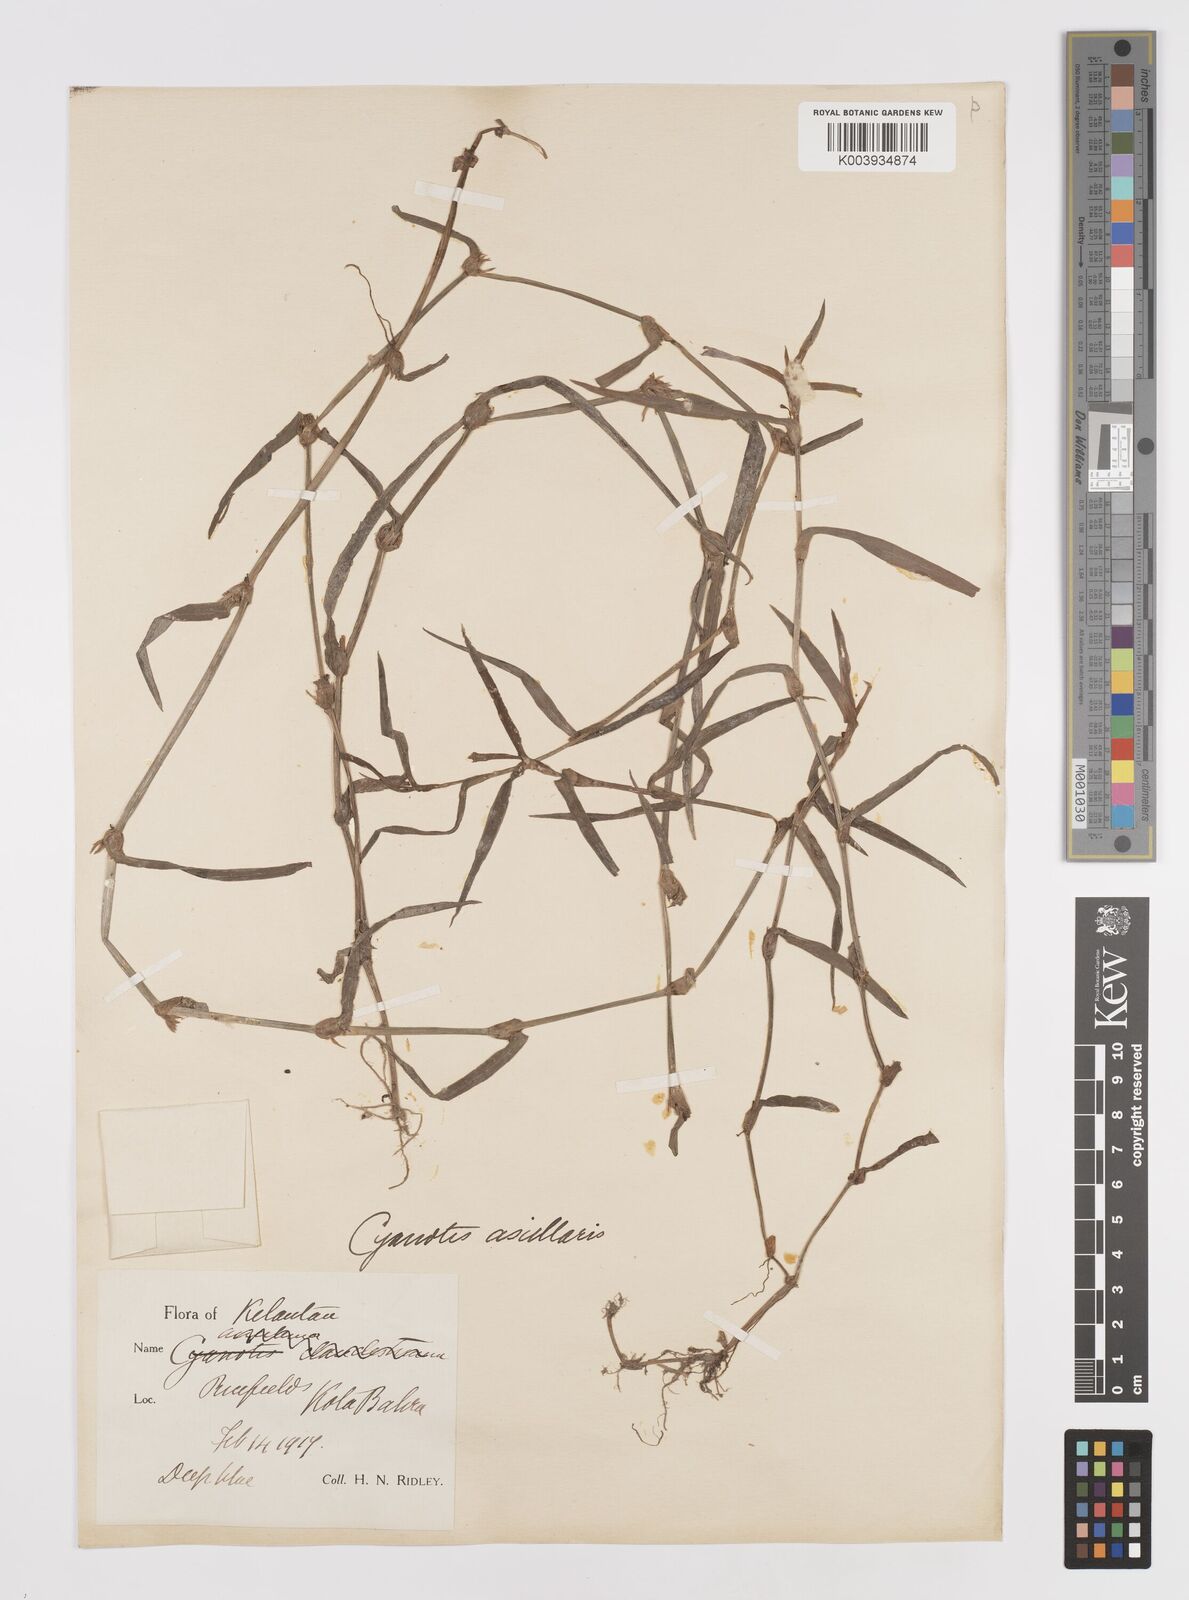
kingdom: Plantae
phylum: Tracheophyta
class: Liliopsida
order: Commelinales
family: Commelinaceae
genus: Cyanotis
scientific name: Cyanotis axillaris
